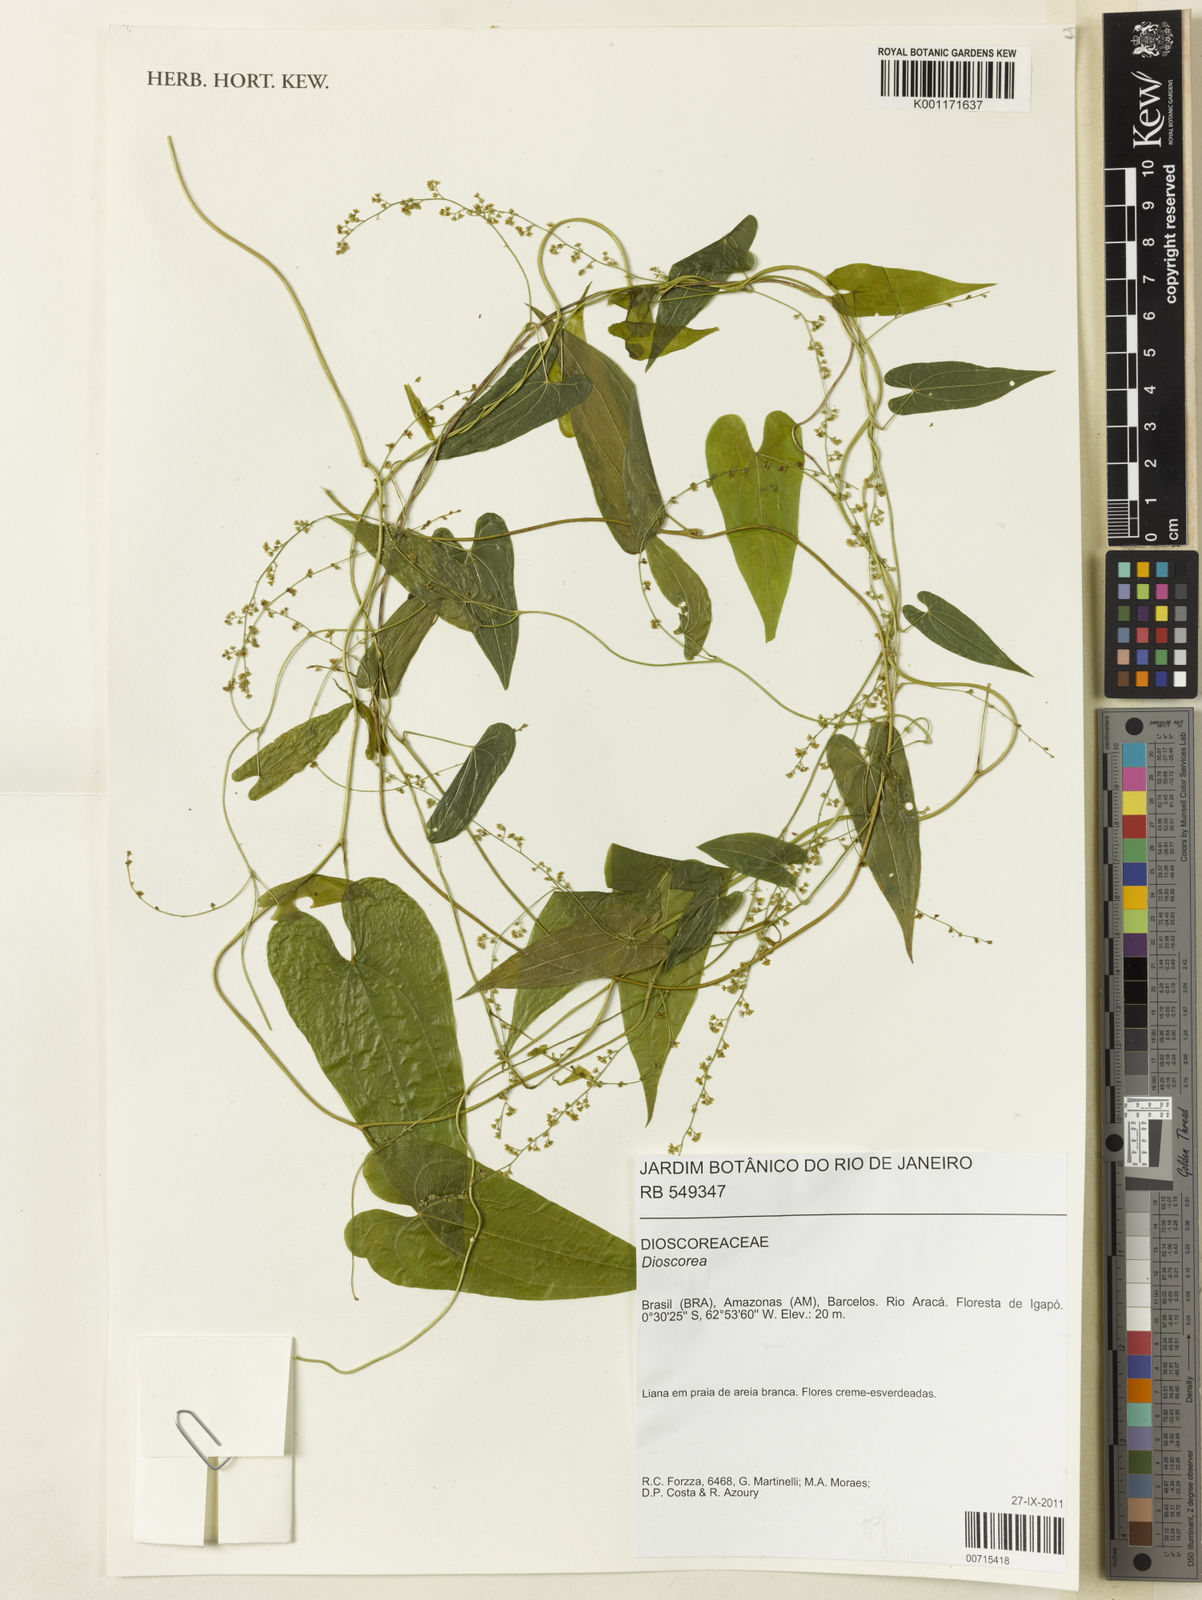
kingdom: Plantae
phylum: Tracheophyta
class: Liliopsida
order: Dioscoreales
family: Dioscoreaceae
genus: Dioscorea
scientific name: Dioscorea
